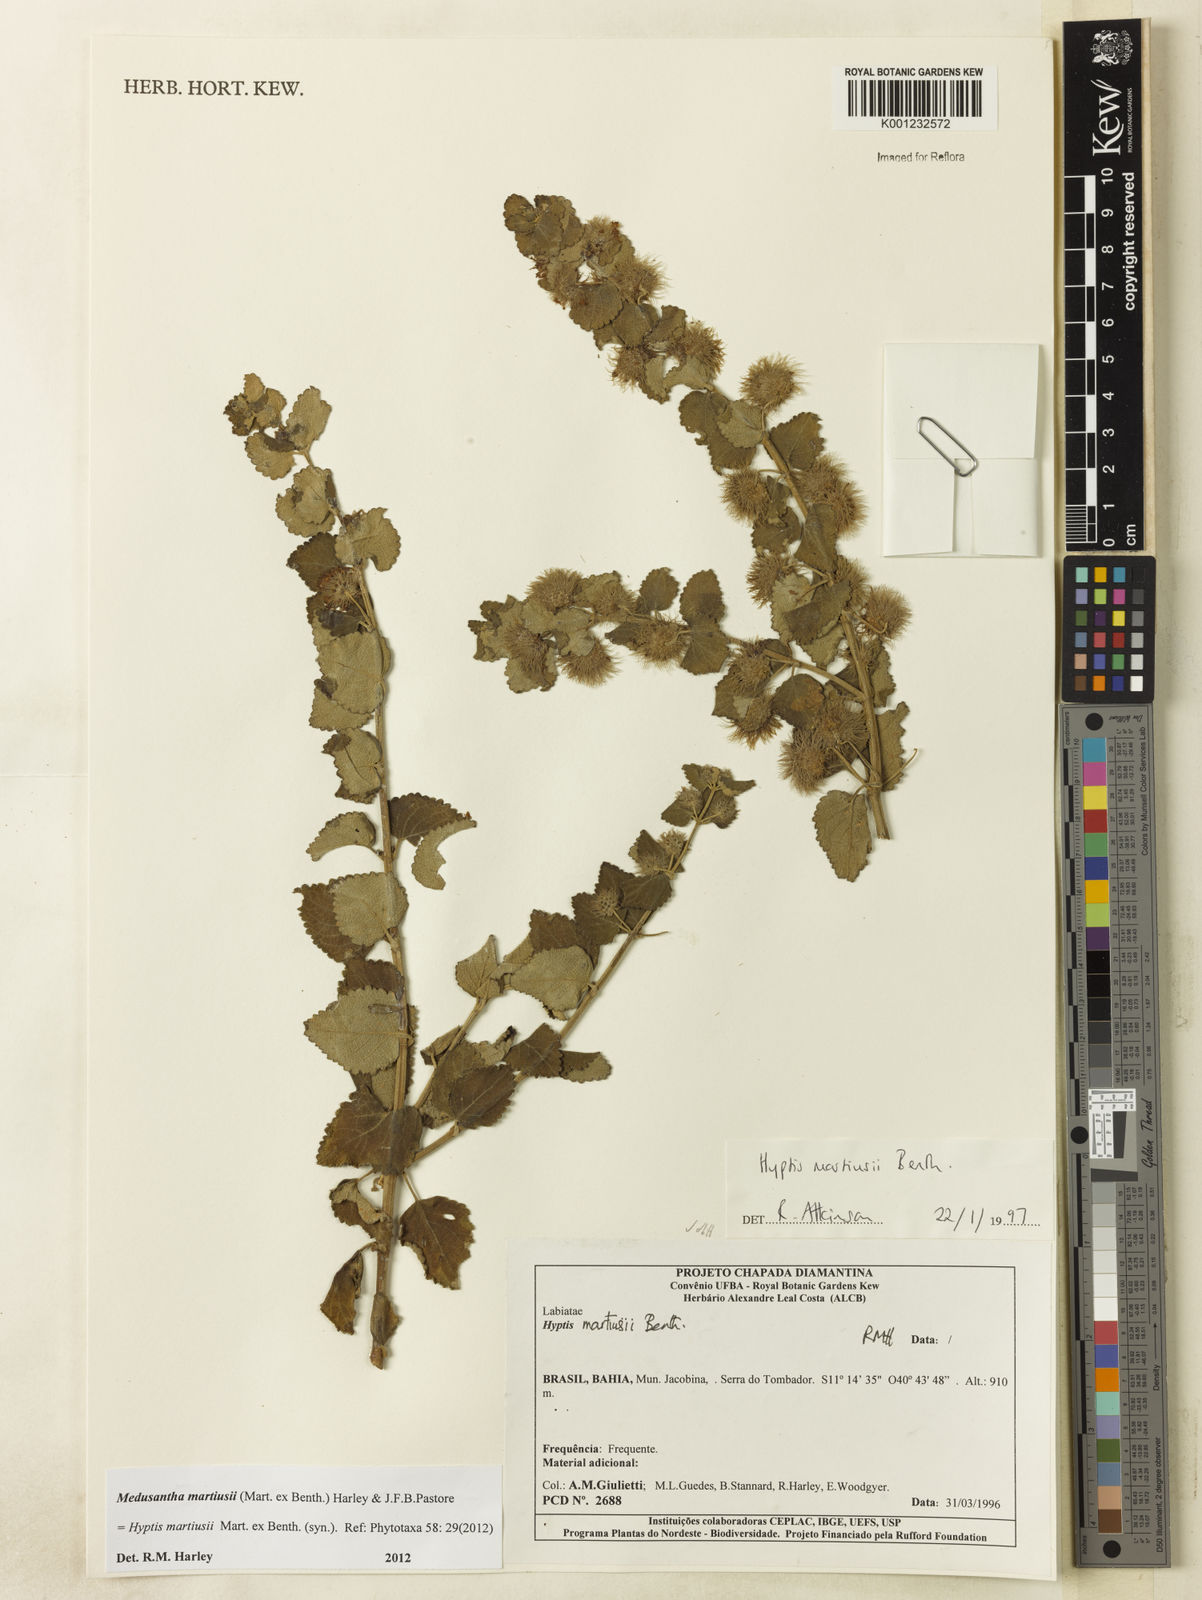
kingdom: Plantae
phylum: Tracheophyta
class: Magnoliopsida
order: Lamiales
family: Lamiaceae
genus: Medusantha
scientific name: Medusantha martiusii
